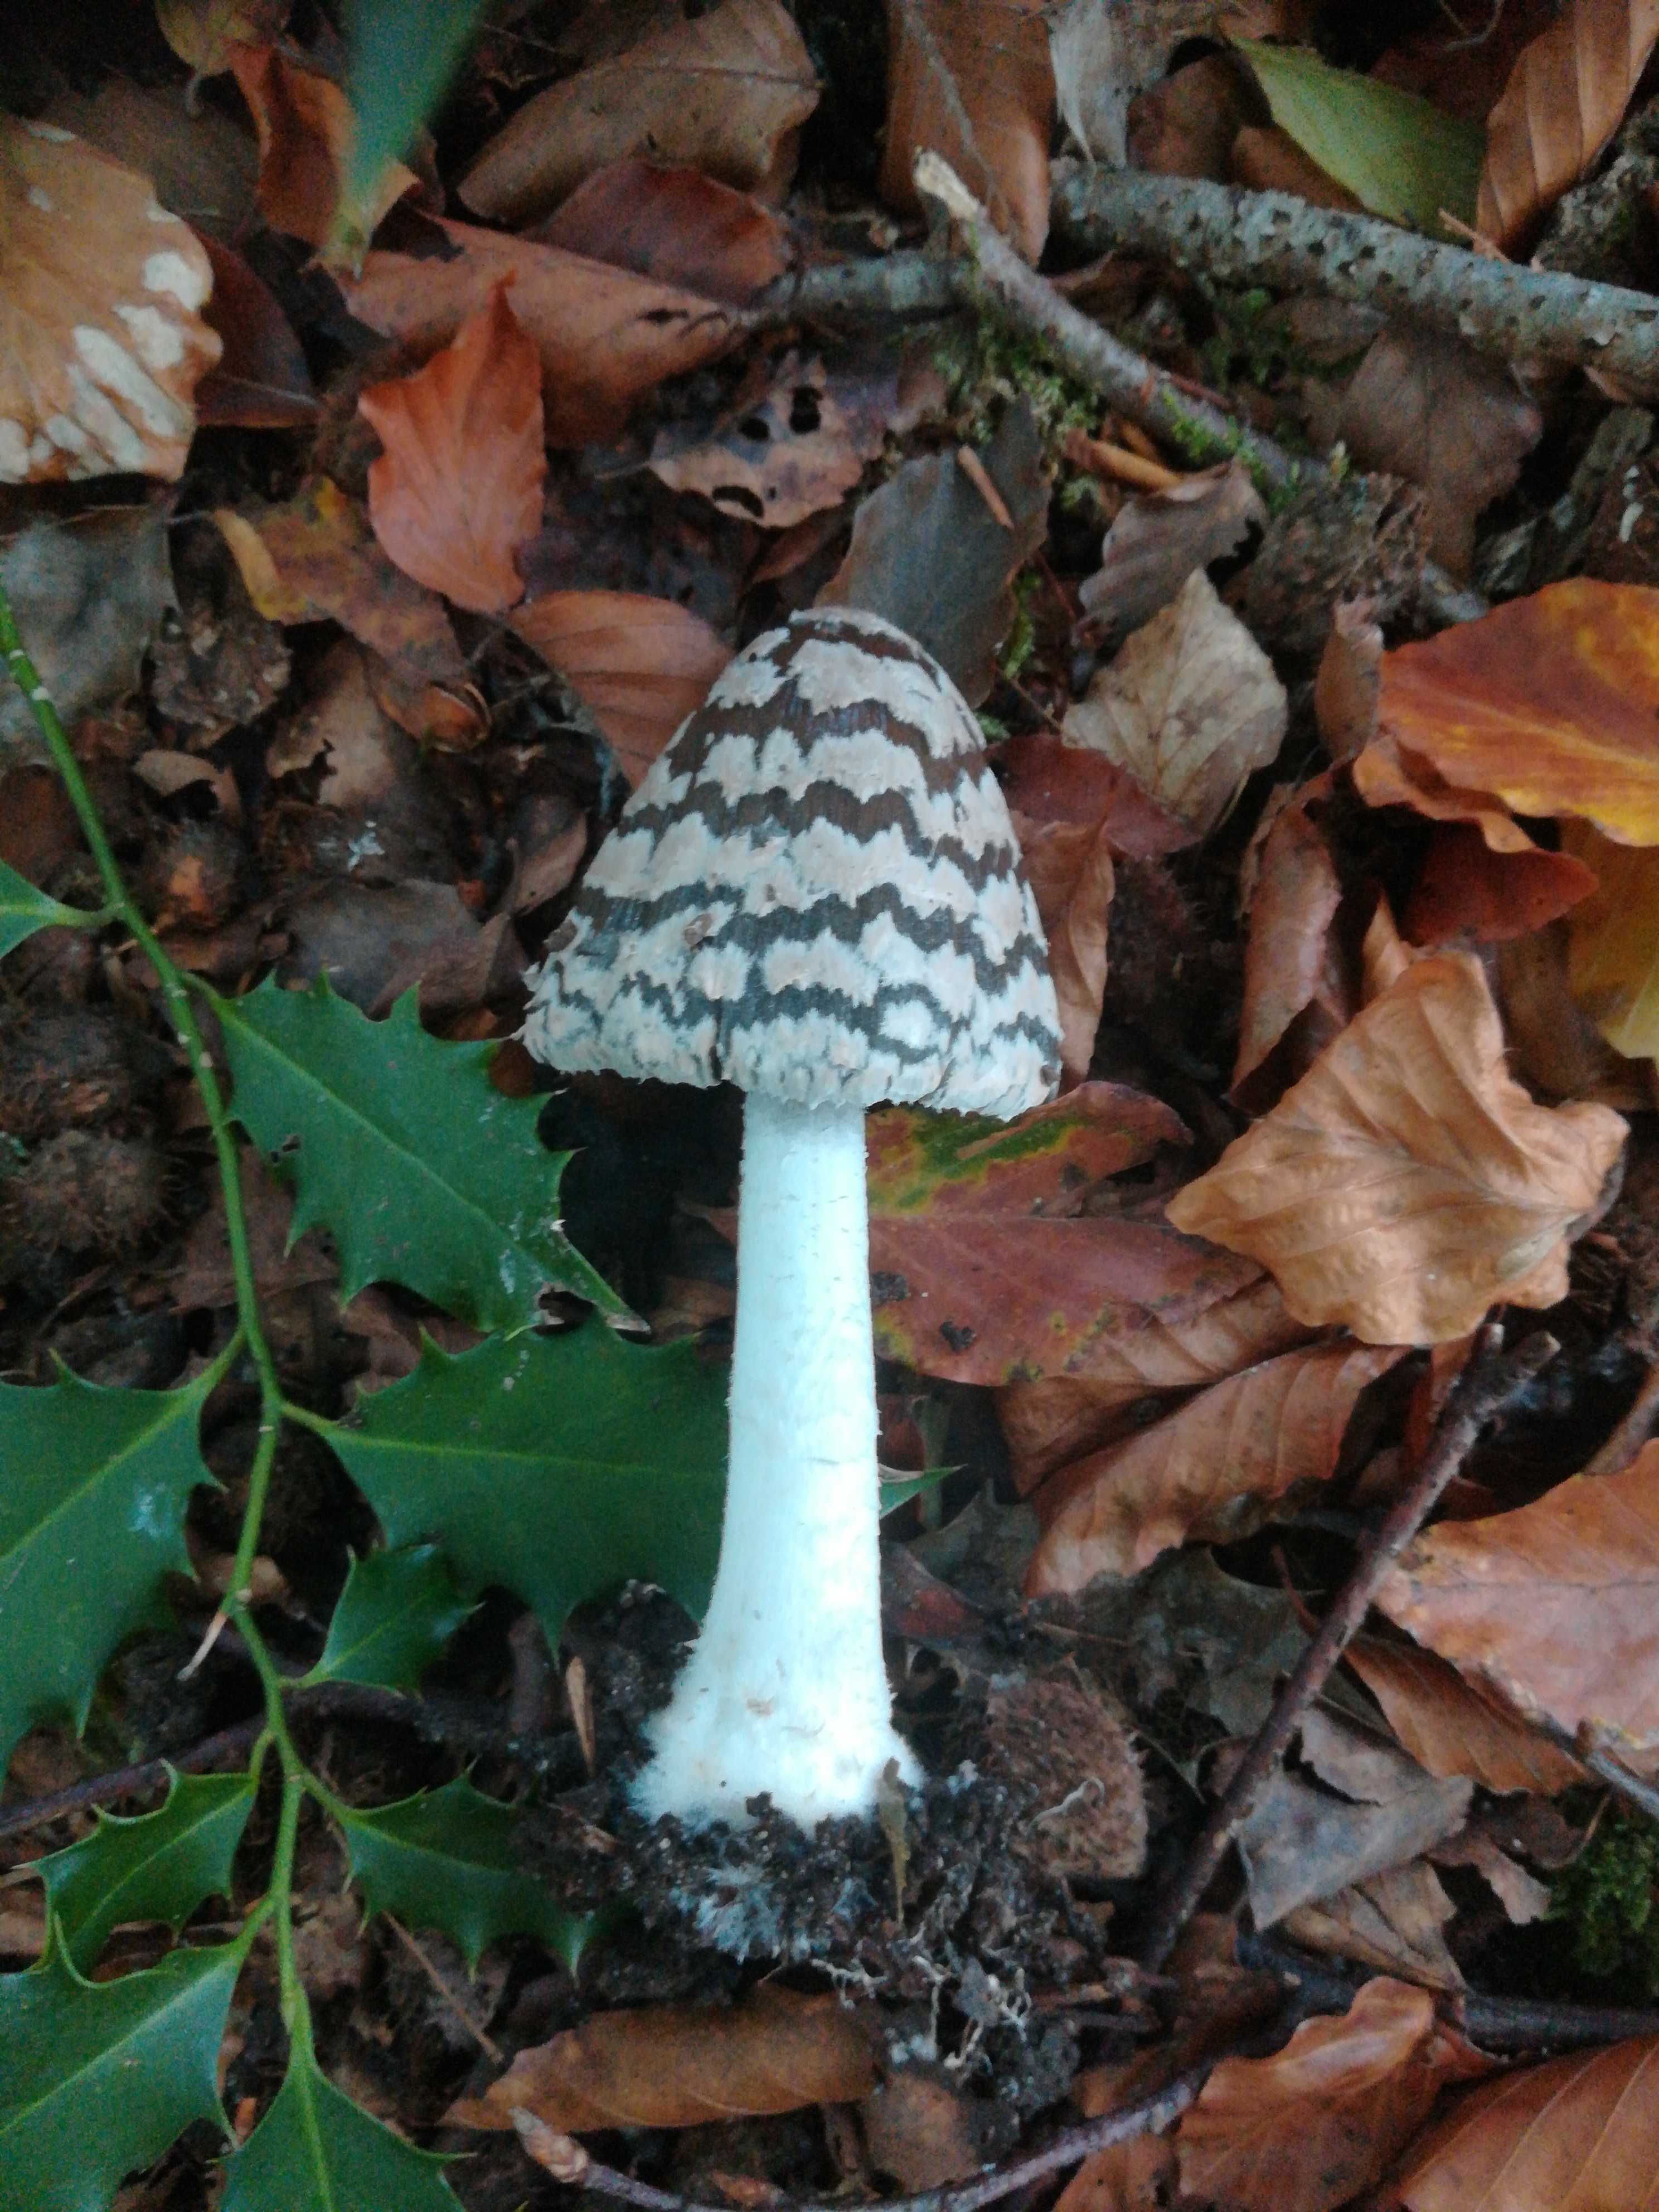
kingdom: Fungi
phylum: Basidiomycota
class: Agaricomycetes
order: Agaricales
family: Psathyrellaceae
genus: Coprinopsis
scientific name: Coprinopsis picacea
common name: skade-blækhat
